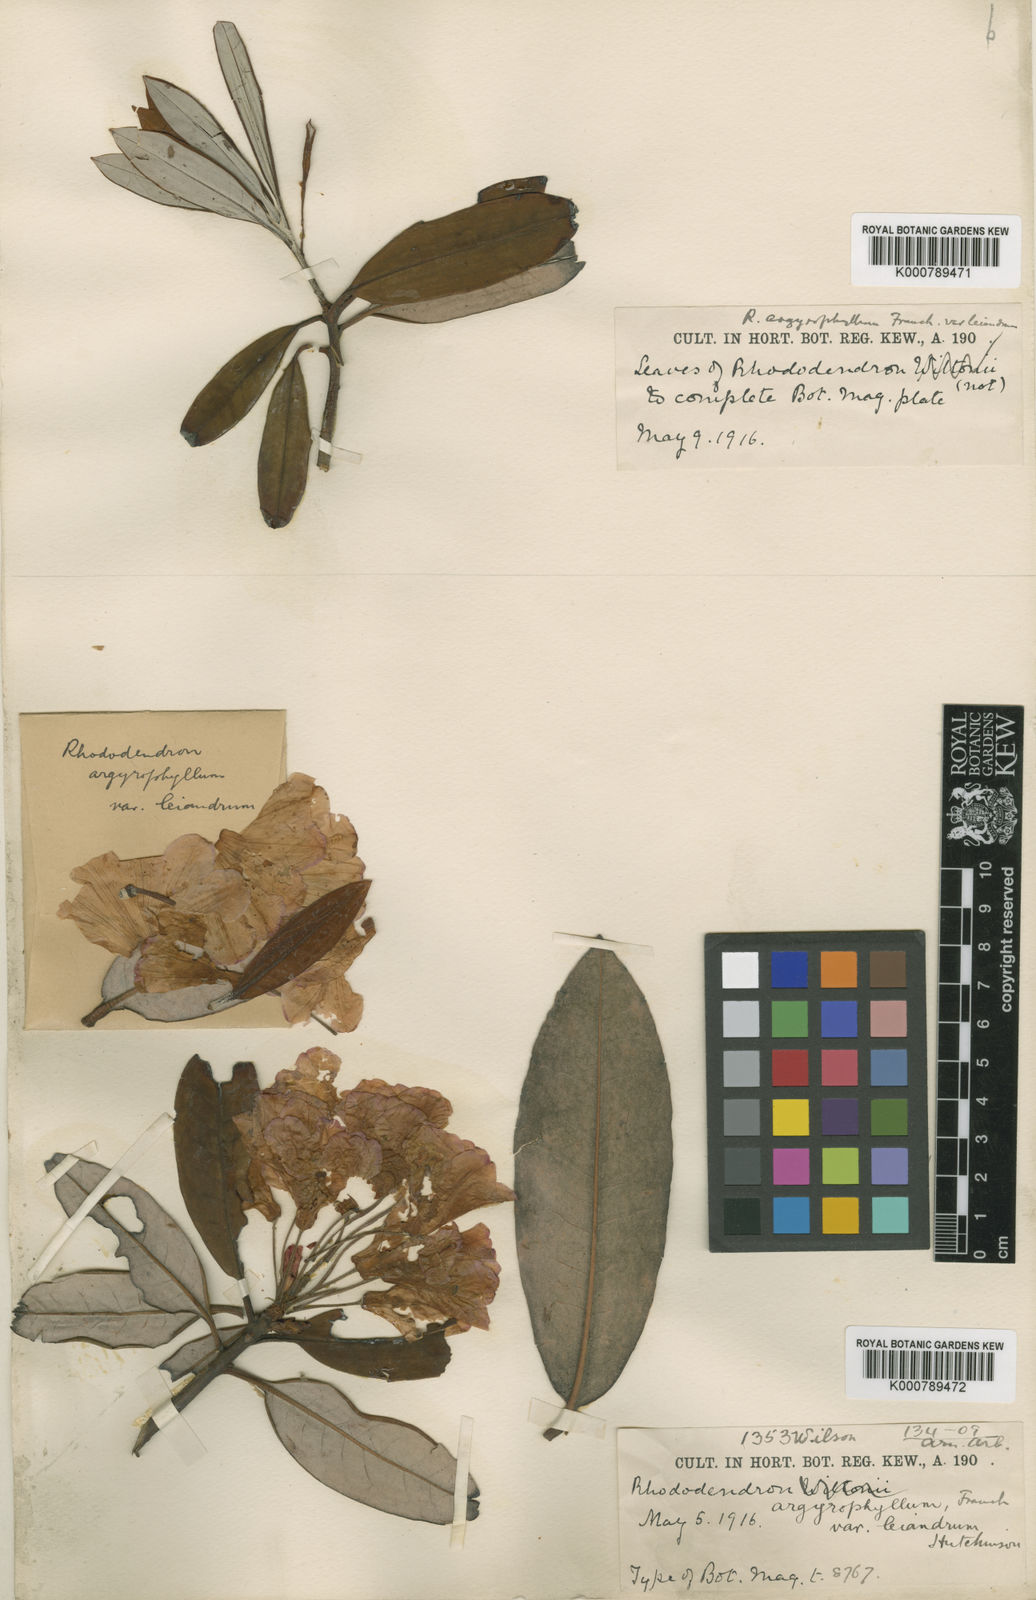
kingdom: Plantae
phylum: Tracheophyta
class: Magnoliopsida
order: Ericales
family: Ericaceae
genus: Rhododendron
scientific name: Rhododendron
